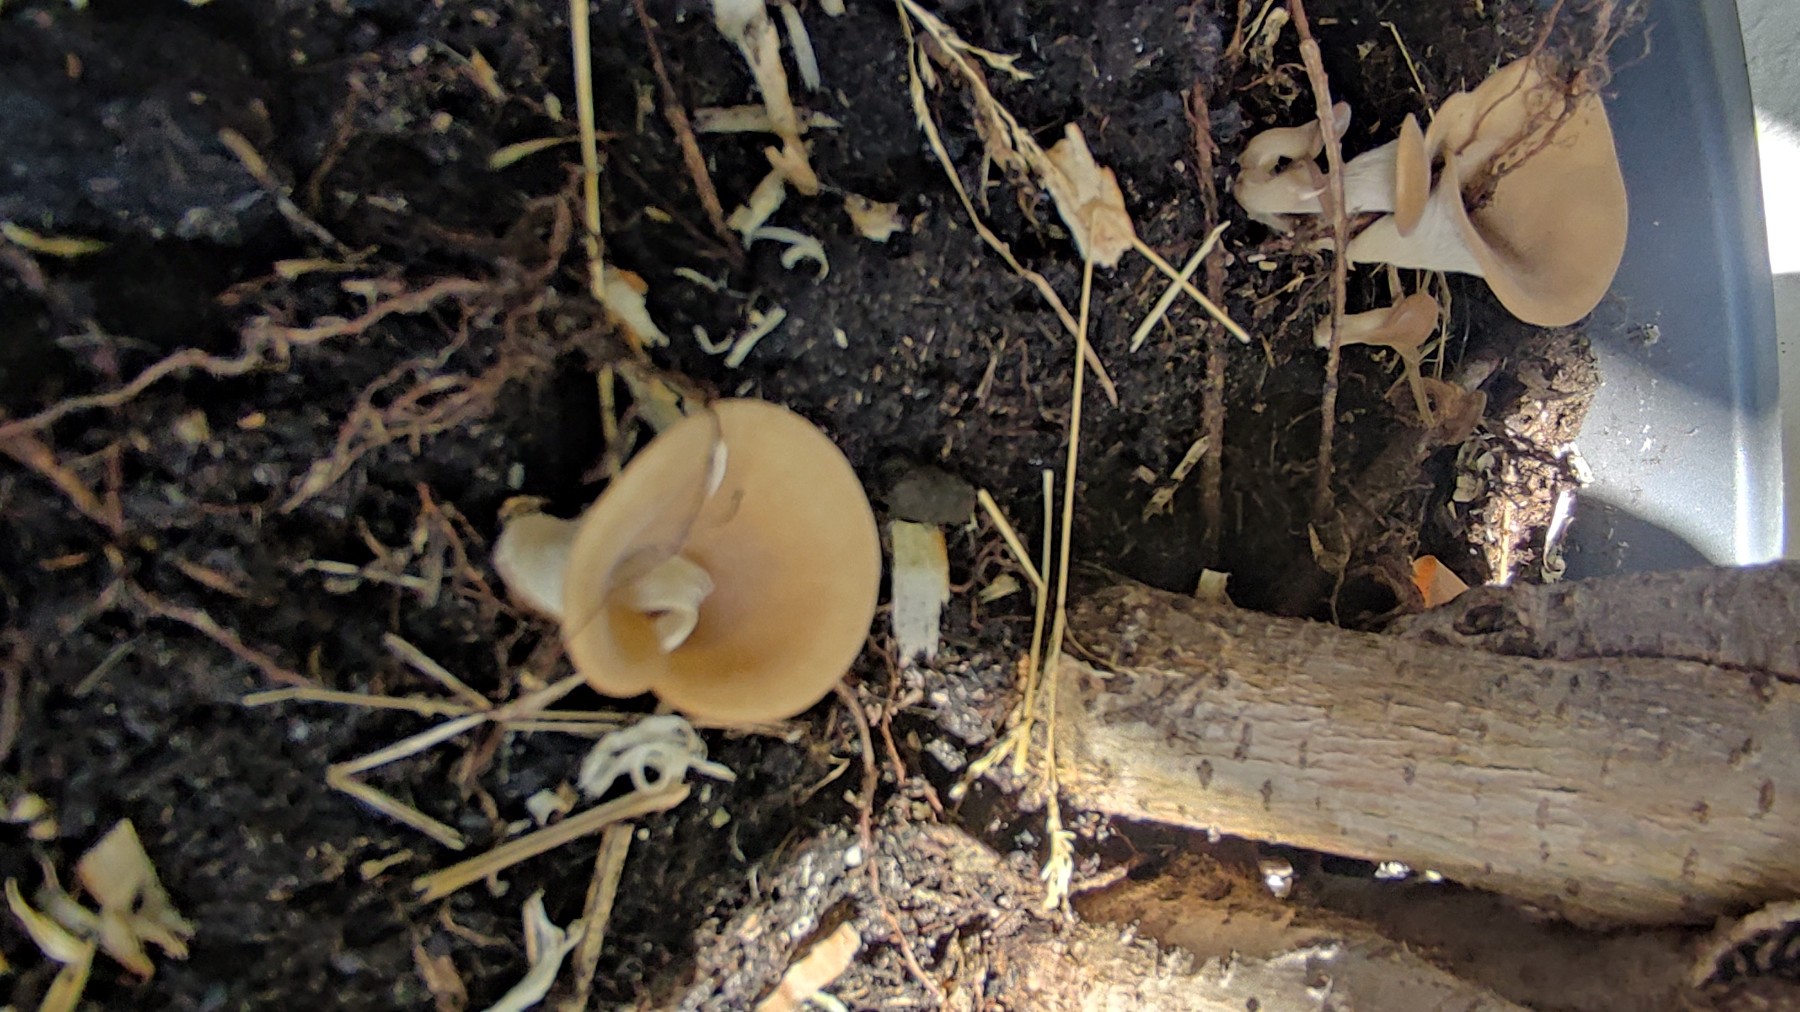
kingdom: Fungi
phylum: Basidiomycota
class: Agaricomycetes
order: Agaricales
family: Pleurotaceae
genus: Hohenbuehelia
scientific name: Hohenbuehelia
